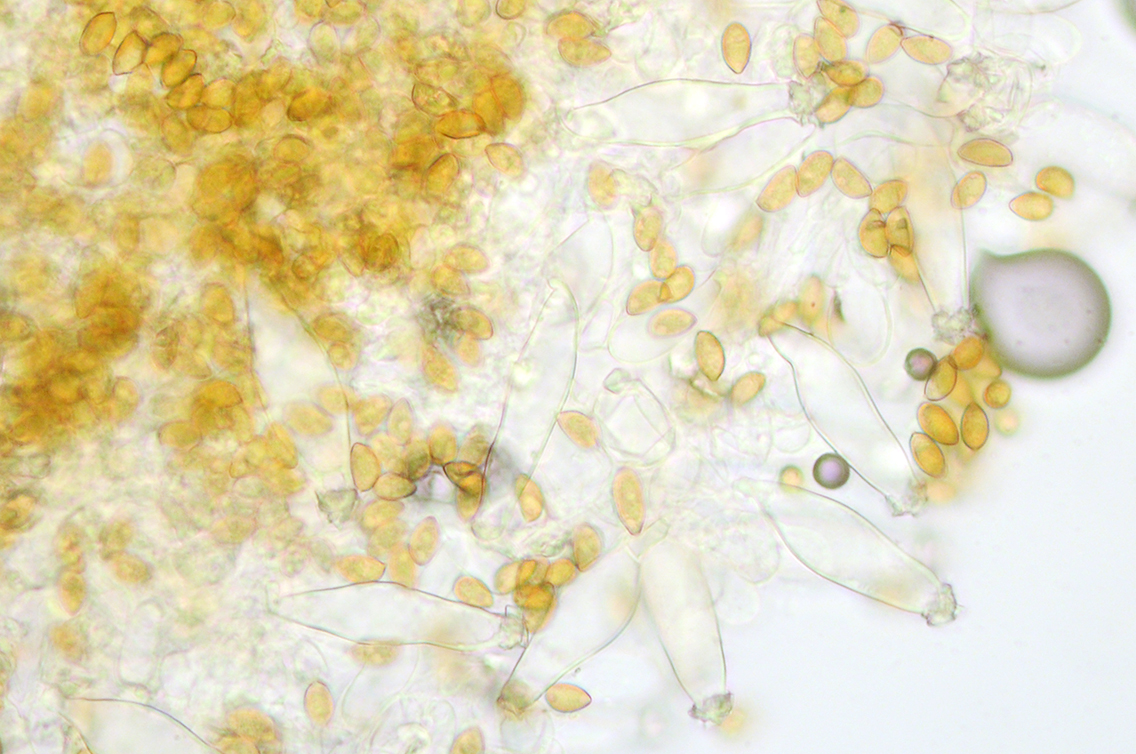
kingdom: Fungi
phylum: Basidiomycota
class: Agaricomycetes
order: Agaricales
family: Inocybaceae
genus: Inocybe
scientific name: Inocybe huijsmanii
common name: rosazonet trævlhat
